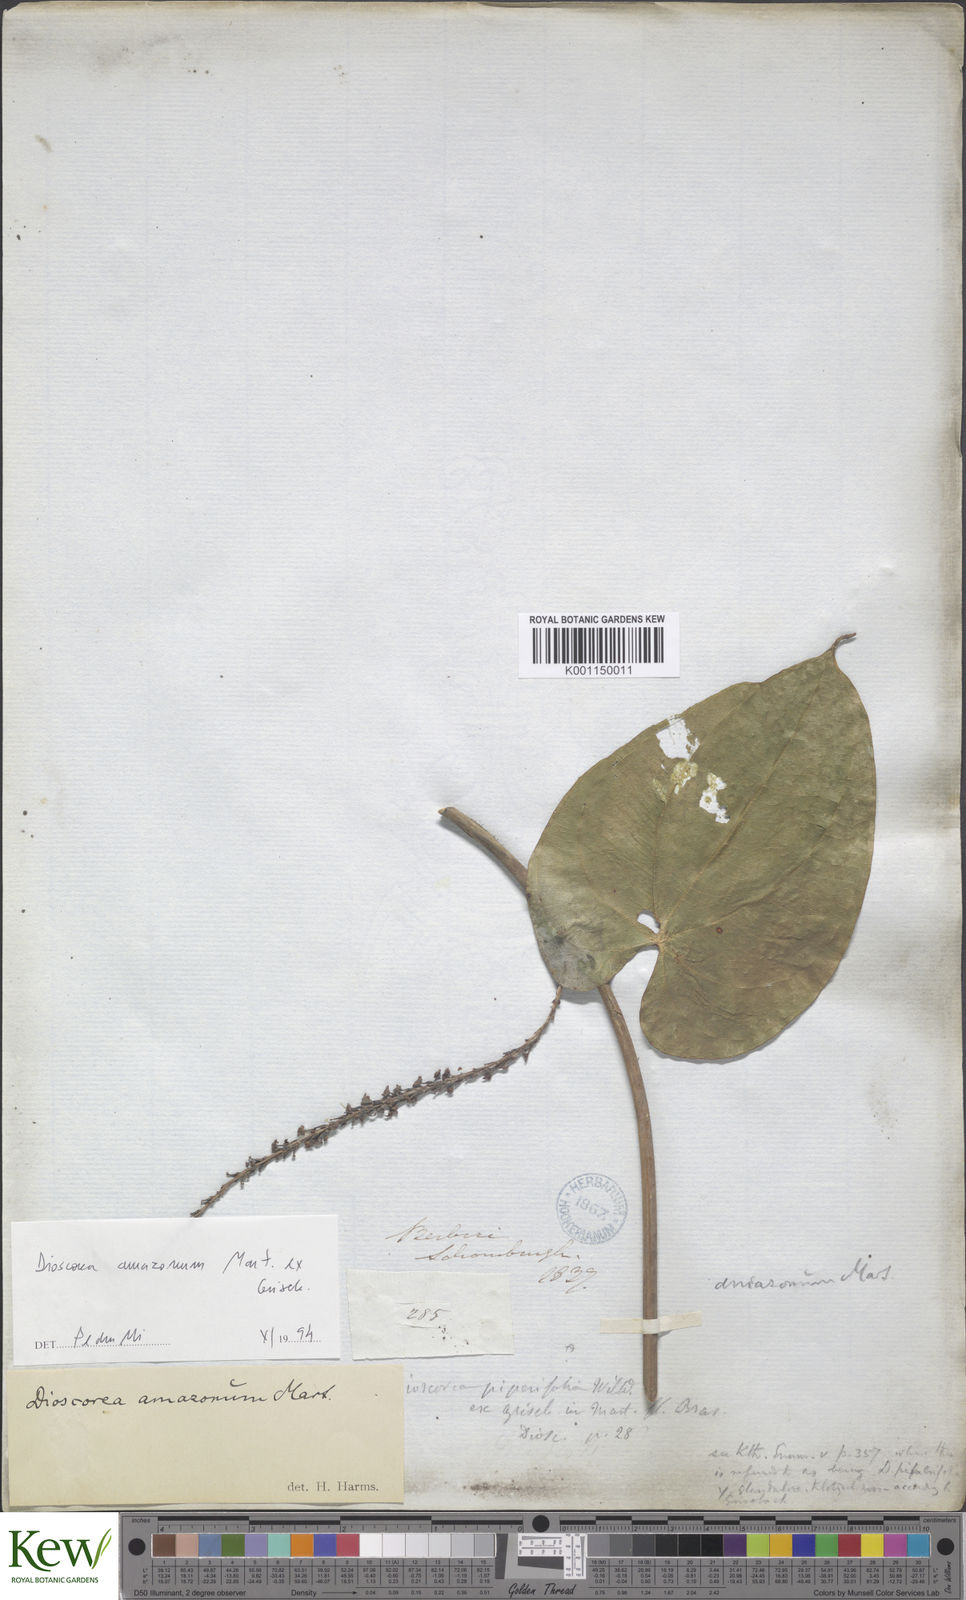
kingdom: Plantae
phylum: Tracheophyta
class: Liliopsida
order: Dioscoreales
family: Dioscoreaceae
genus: Dioscorea
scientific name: Dioscorea amazonum
